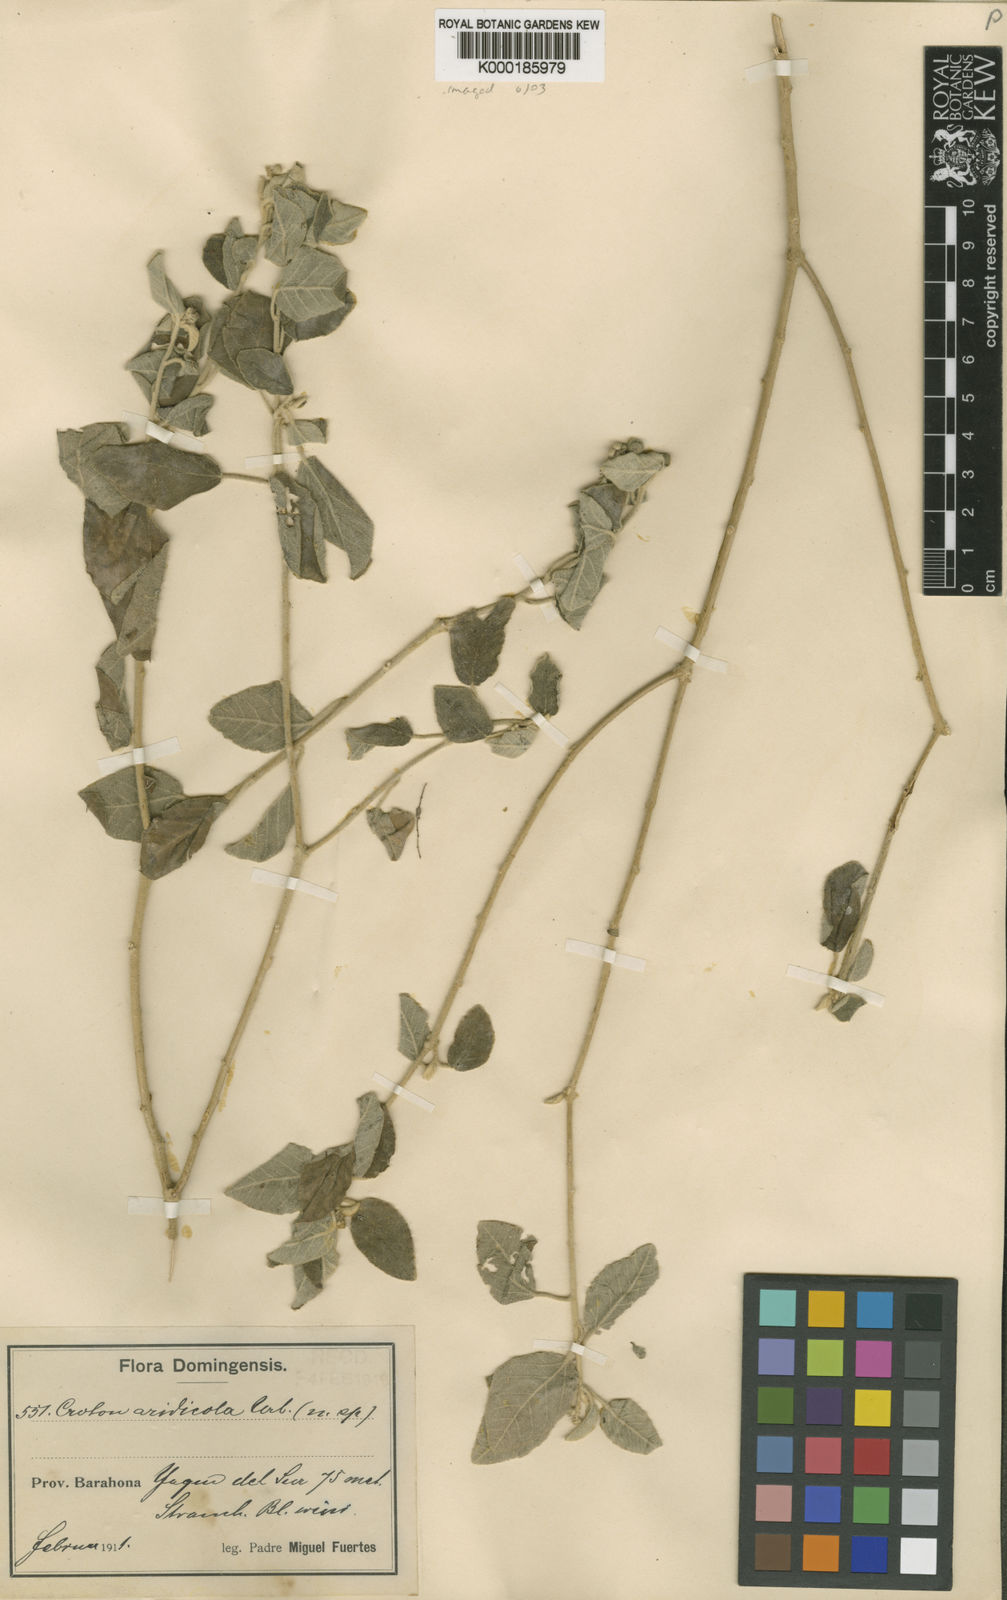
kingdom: Plantae
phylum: Tracheophyta
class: Magnoliopsida
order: Malpighiales
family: Euphorbiaceae
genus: Croton
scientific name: Croton humilis
